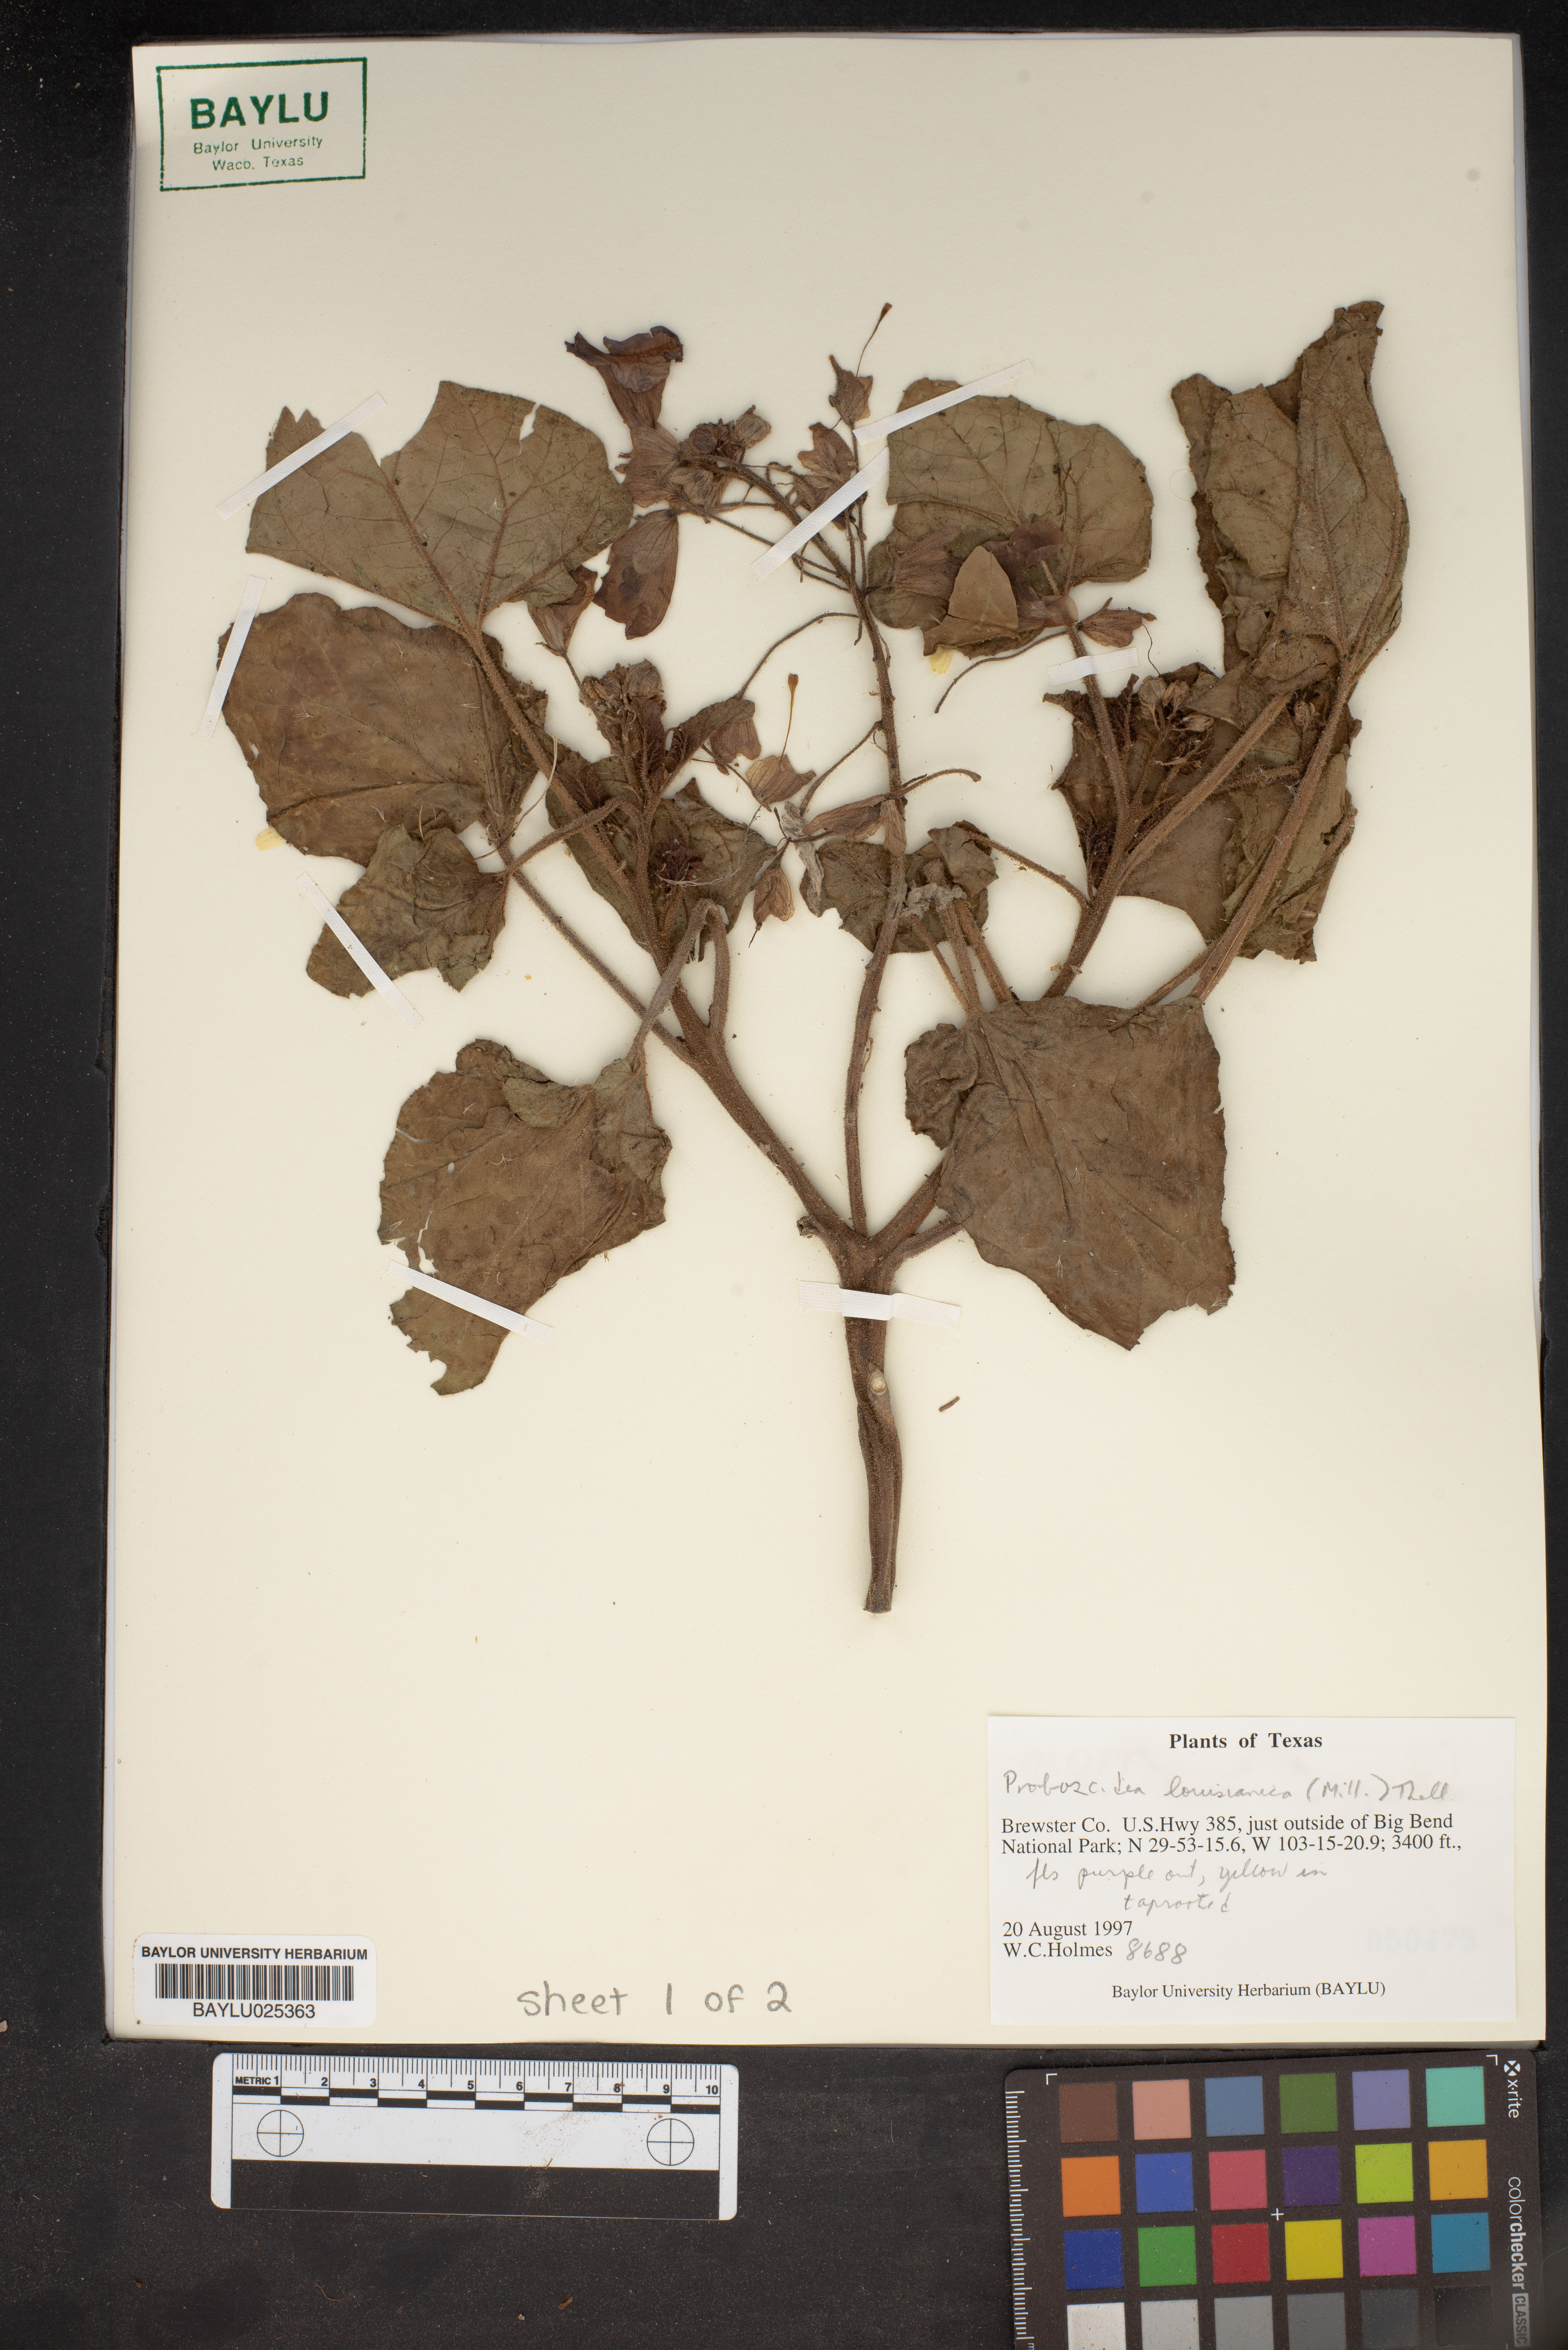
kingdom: Plantae
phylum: Tracheophyta
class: Magnoliopsida
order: Lamiales
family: Martyniaceae
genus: Proboscidea
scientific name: Proboscidea louisianica
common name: Elephant tusks
